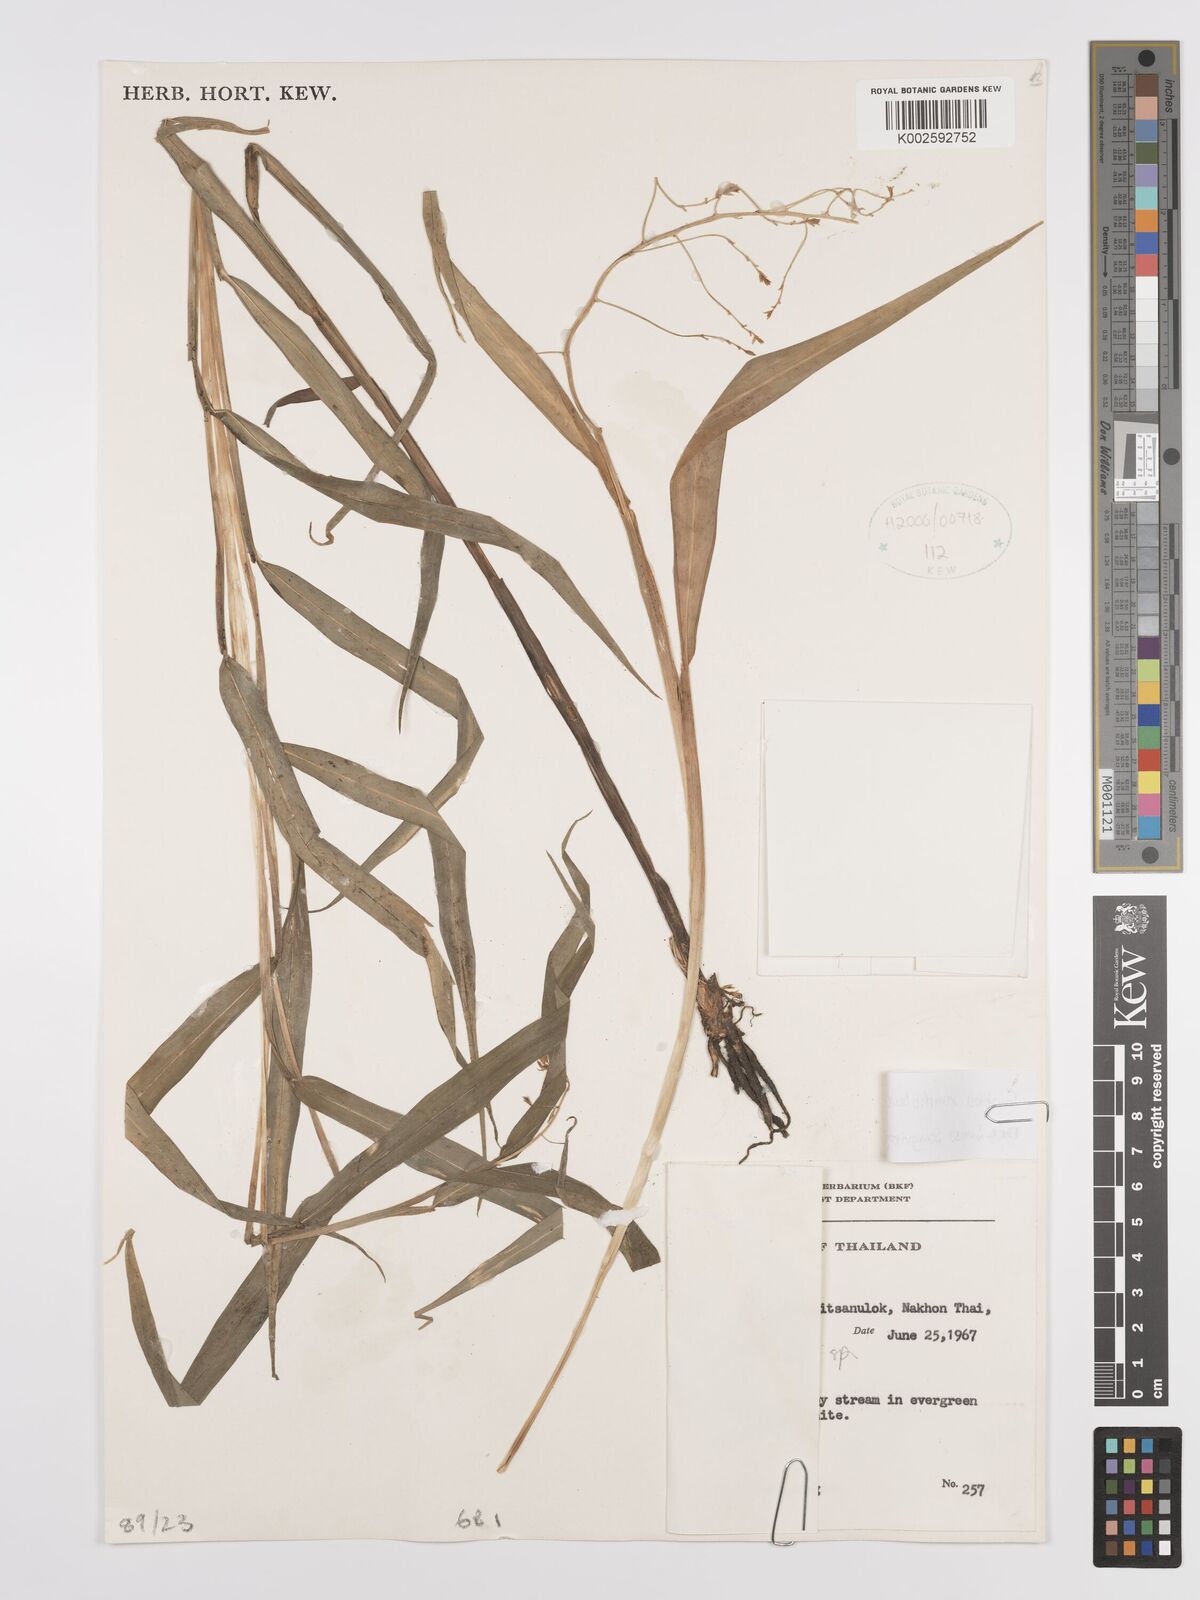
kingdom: Plantae
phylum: Tracheophyta
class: Liliopsida
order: Zingiberales
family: Zingiberaceae
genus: Globba
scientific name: Globba xantholeuca
